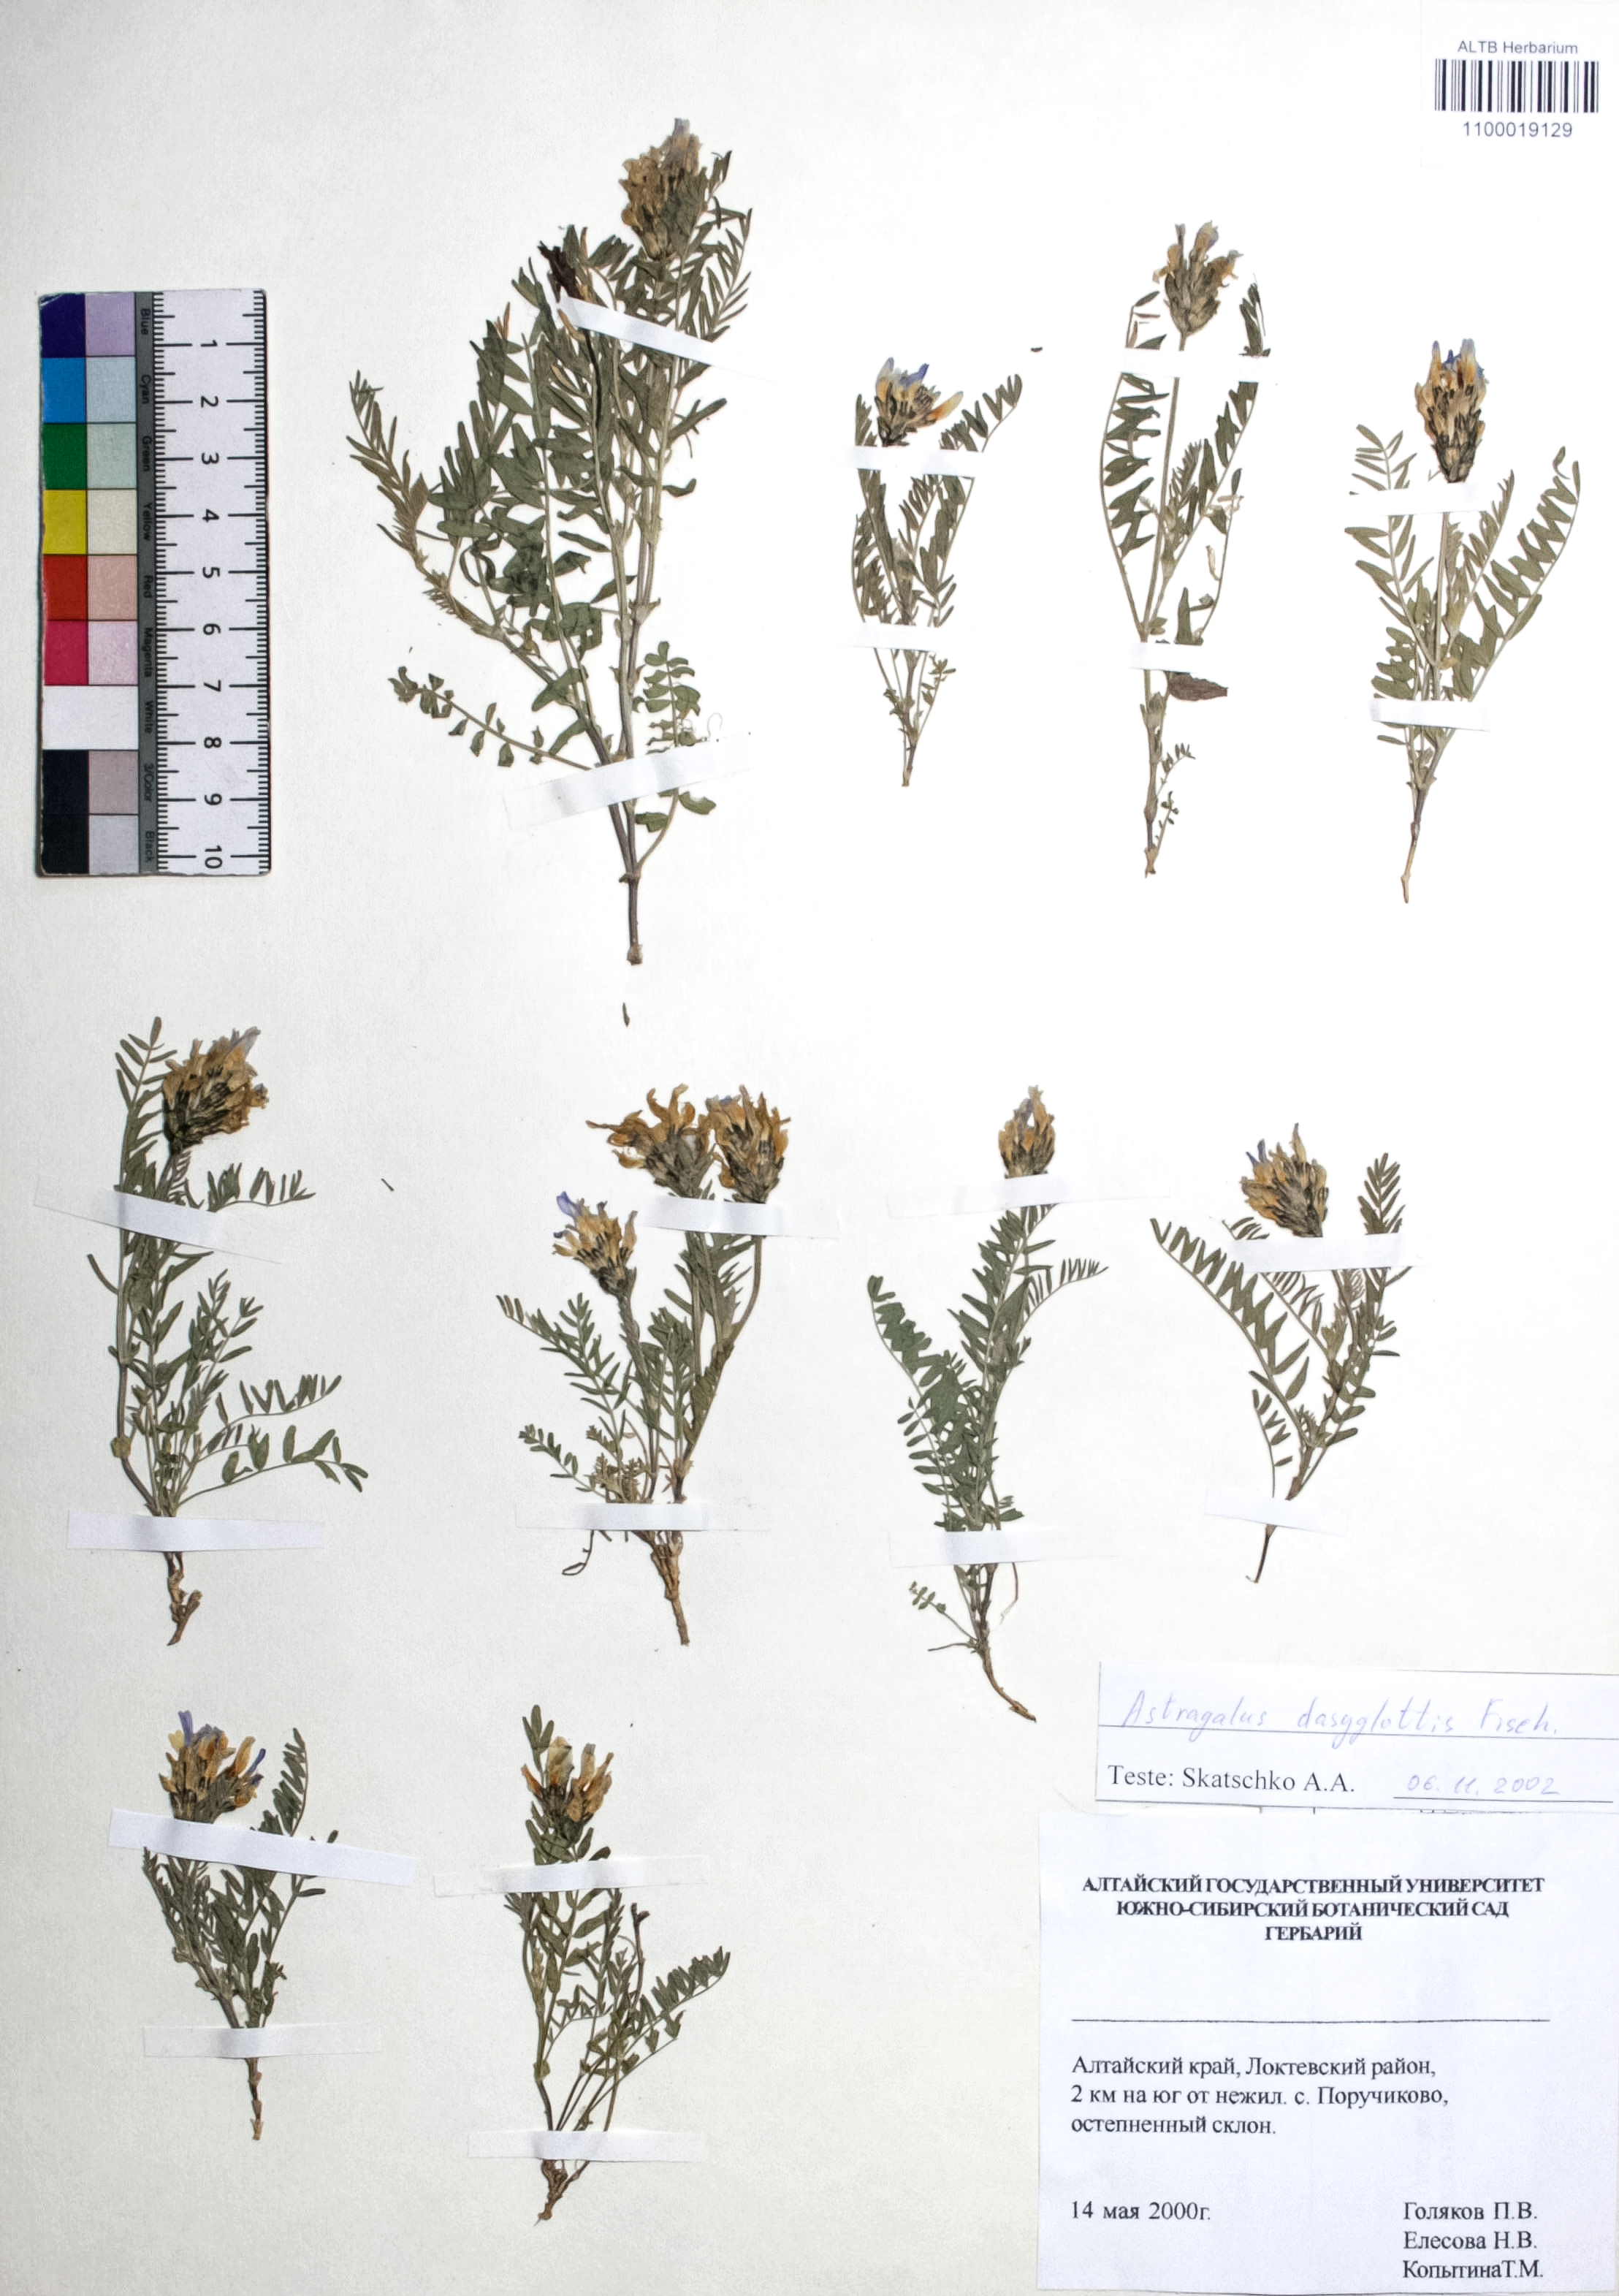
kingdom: Plantae
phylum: Tracheophyta
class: Magnoliopsida
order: Fabales
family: Fabaceae
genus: Astragalus
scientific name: Astragalus agrestis
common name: Field milk-vetch
